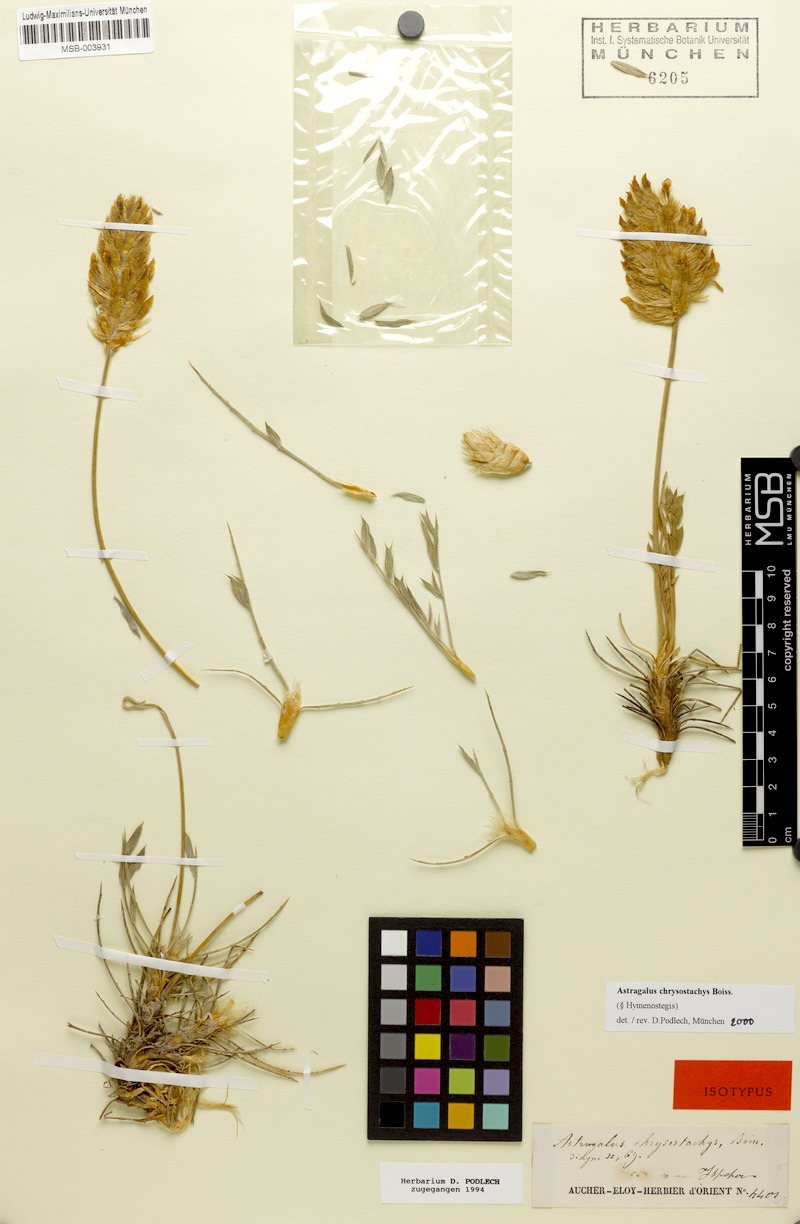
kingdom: Plantae
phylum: Tracheophyta
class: Magnoliopsida
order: Fabales
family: Fabaceae
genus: Astragalus
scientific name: Astragalus chrysostachys
